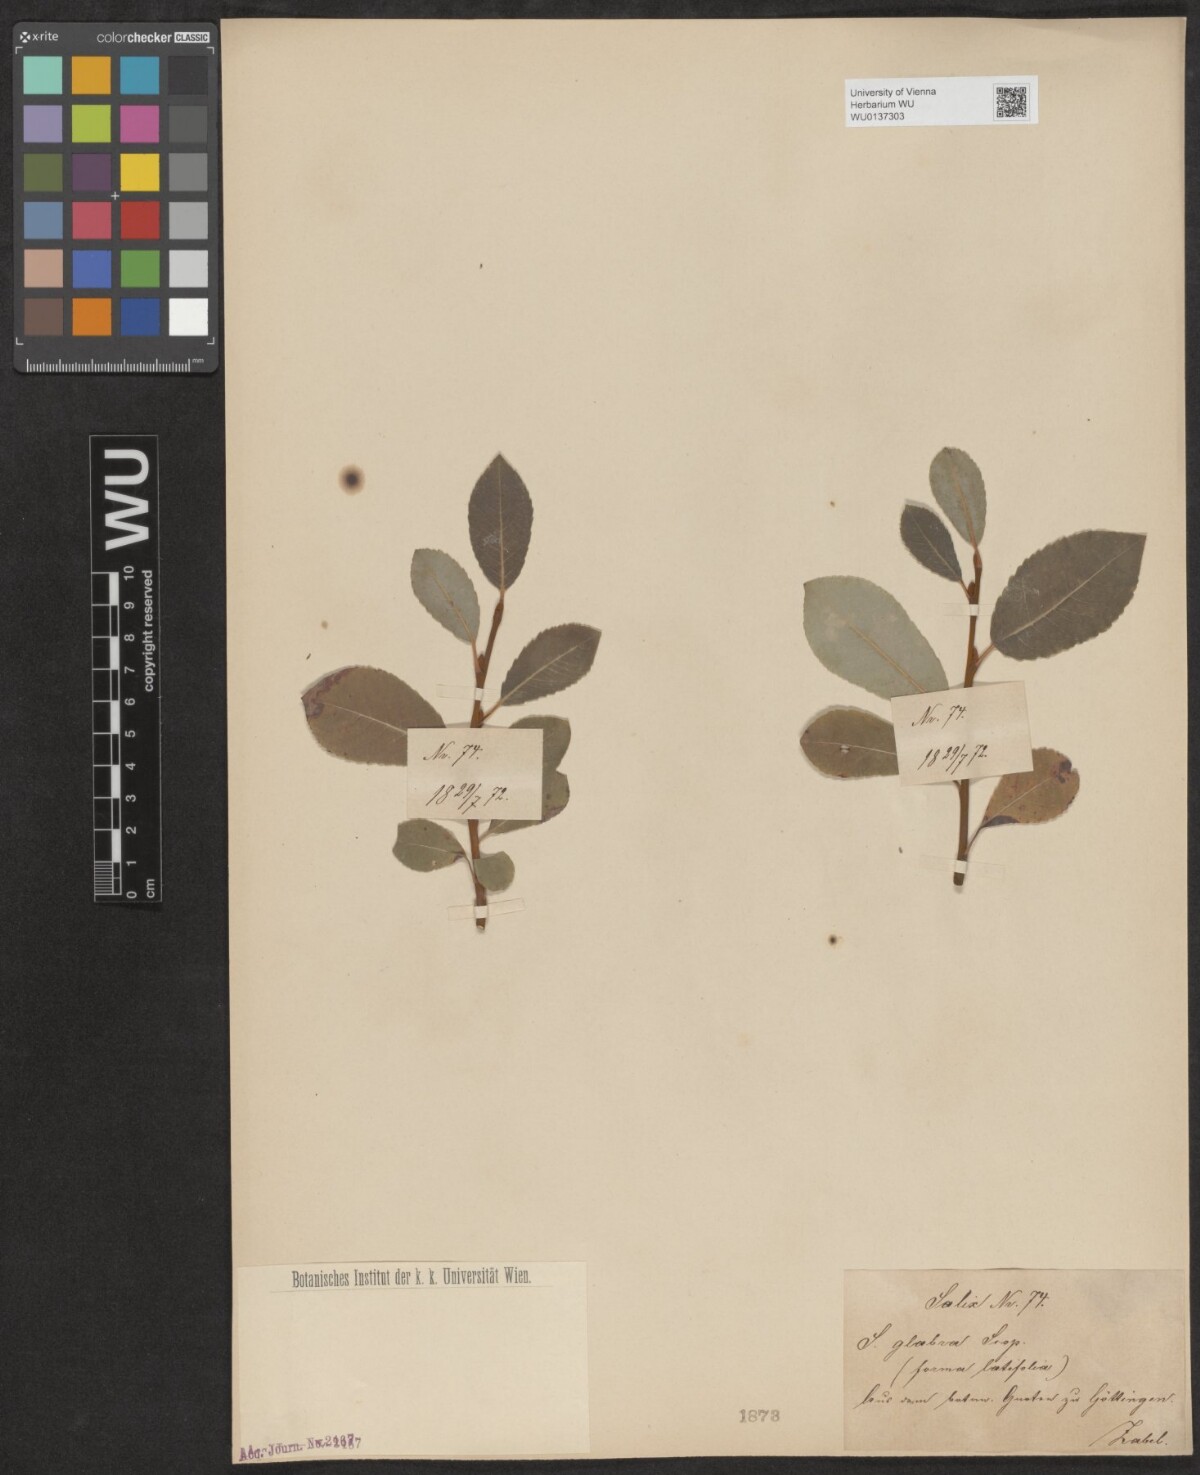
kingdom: Plantae
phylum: Tracheophyta
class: Magnoliopsida
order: Malpighiales
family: Salicaceae
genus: Salix
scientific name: Salix glabra
